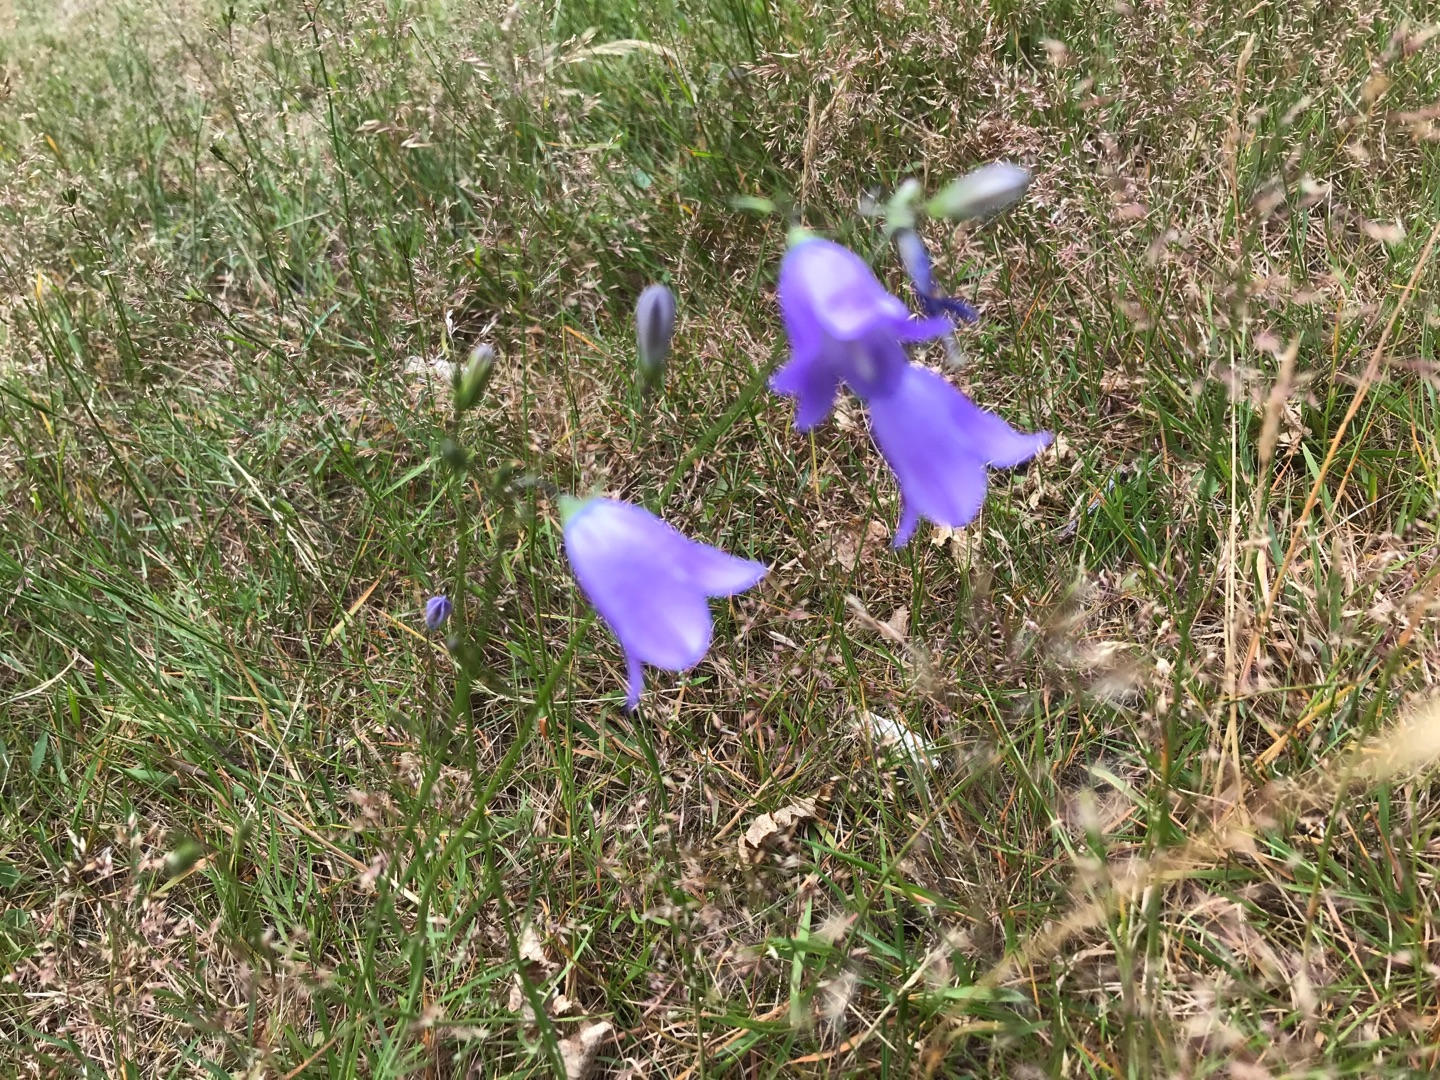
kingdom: Plantae
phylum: Tracheophyta
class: Magnoliopsida
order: Asterales
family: Campanulaceae
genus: Campanula
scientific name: Campanula rotundifolia
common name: Liden klokke
